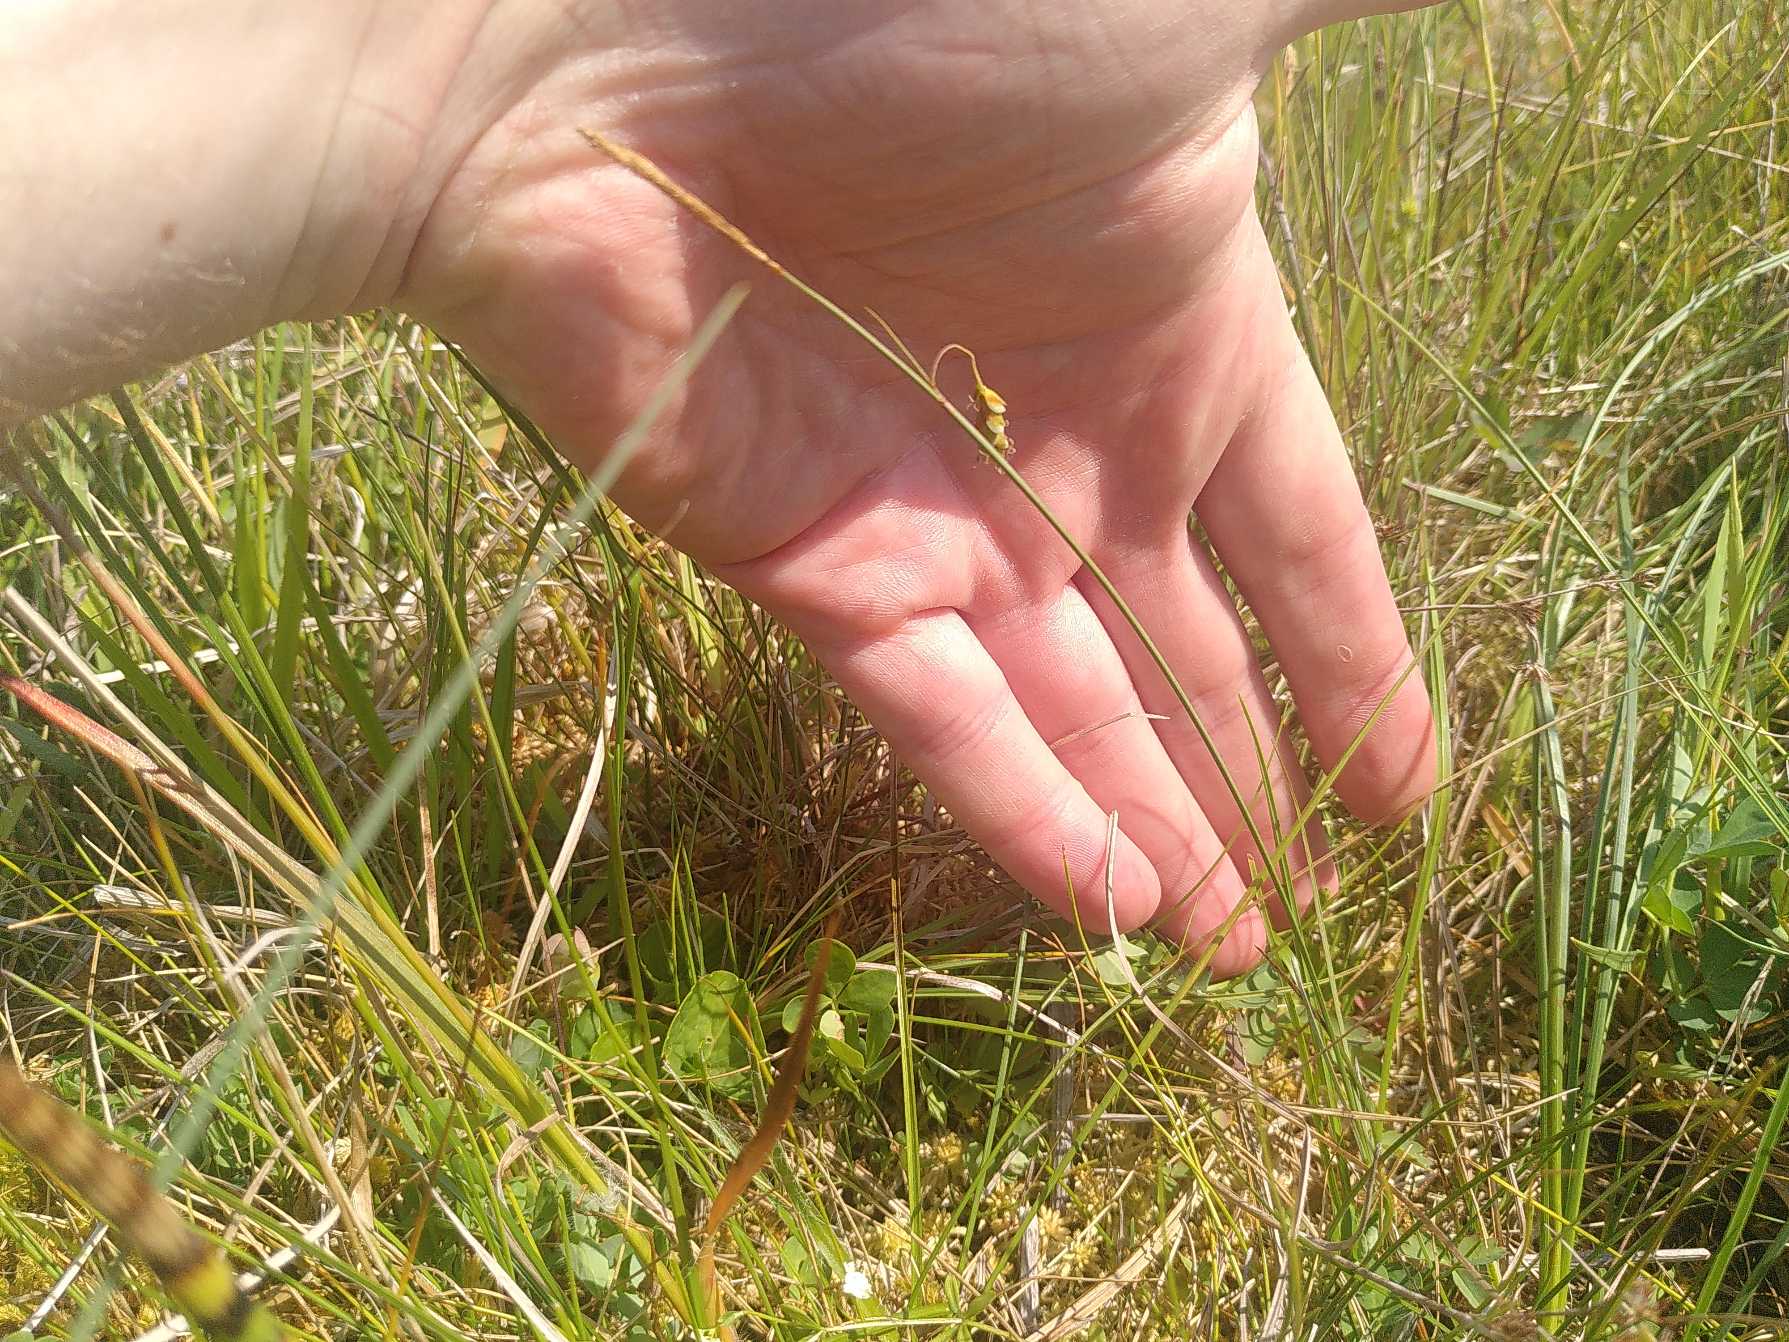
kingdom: Plantae
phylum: Tracheophyta
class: Liliopsida
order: Poales
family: Cyperaceae
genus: Carex
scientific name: Carex limosa
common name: Dynd-star
